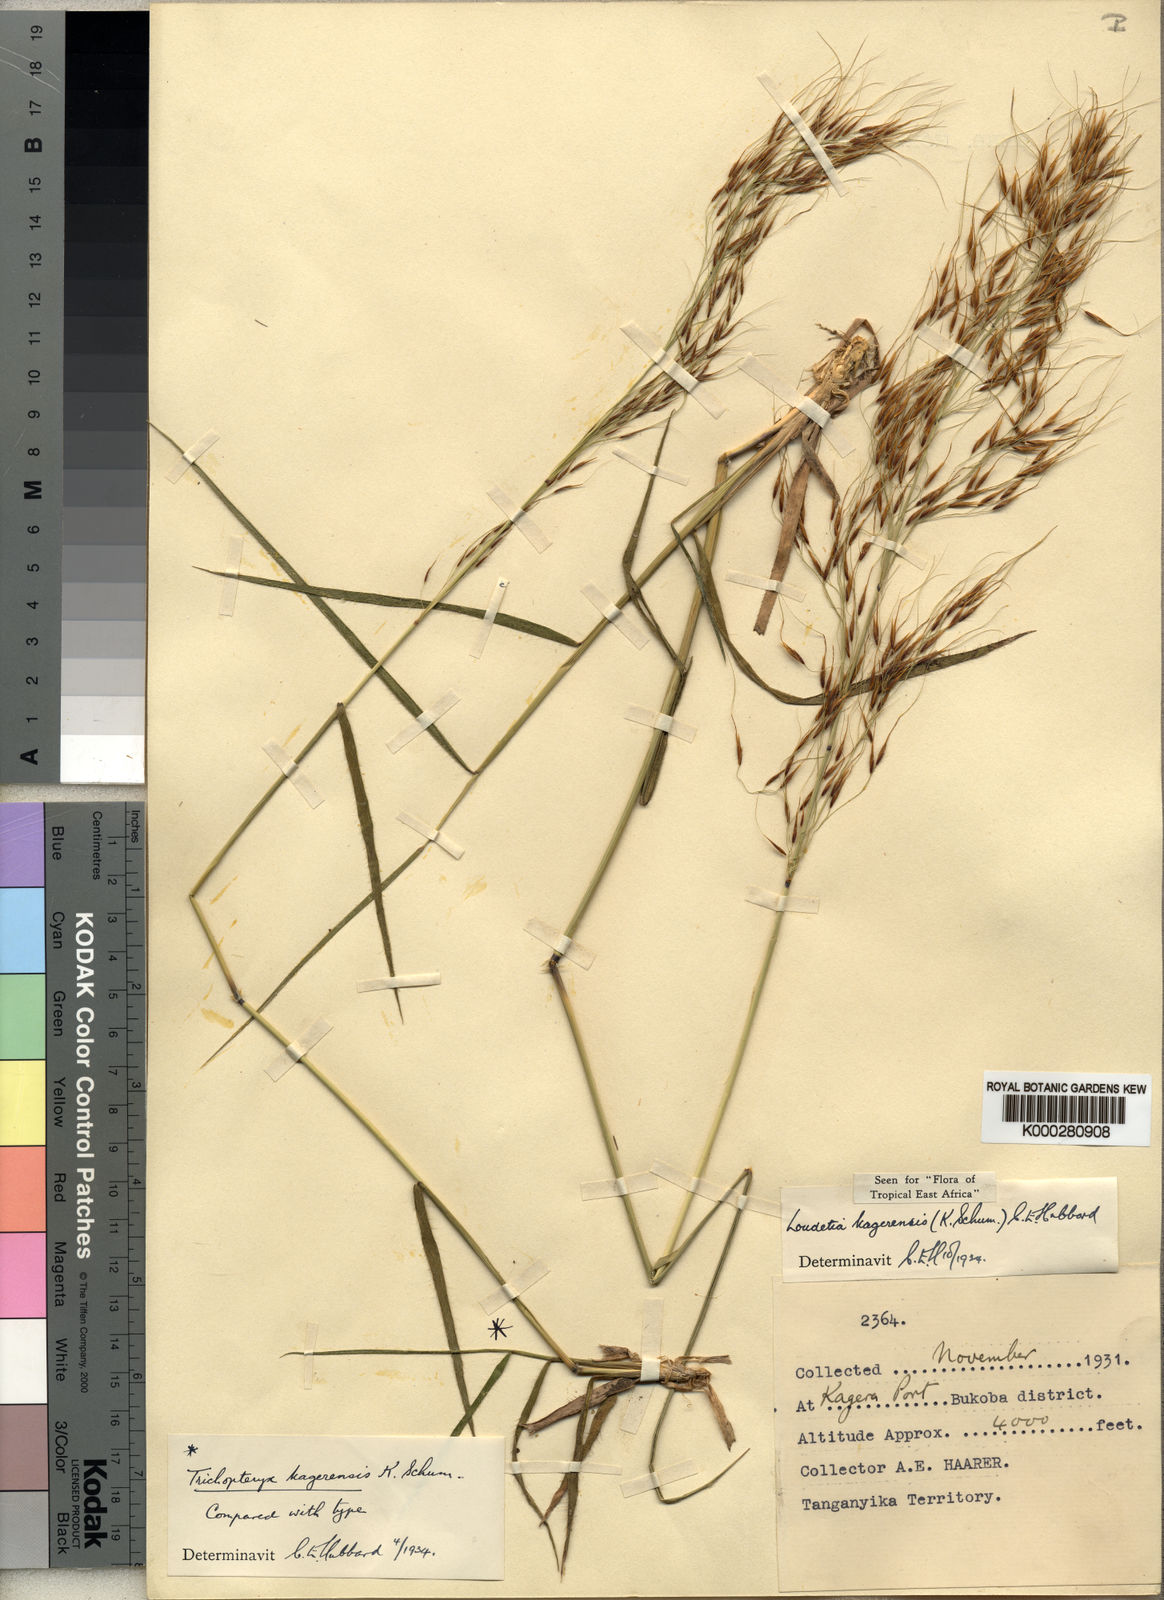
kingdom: Plantae
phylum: Tracheophyta
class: Liliopsida
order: Poales
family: Poaceae
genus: Loudetia
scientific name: Loudetia kagerensis
